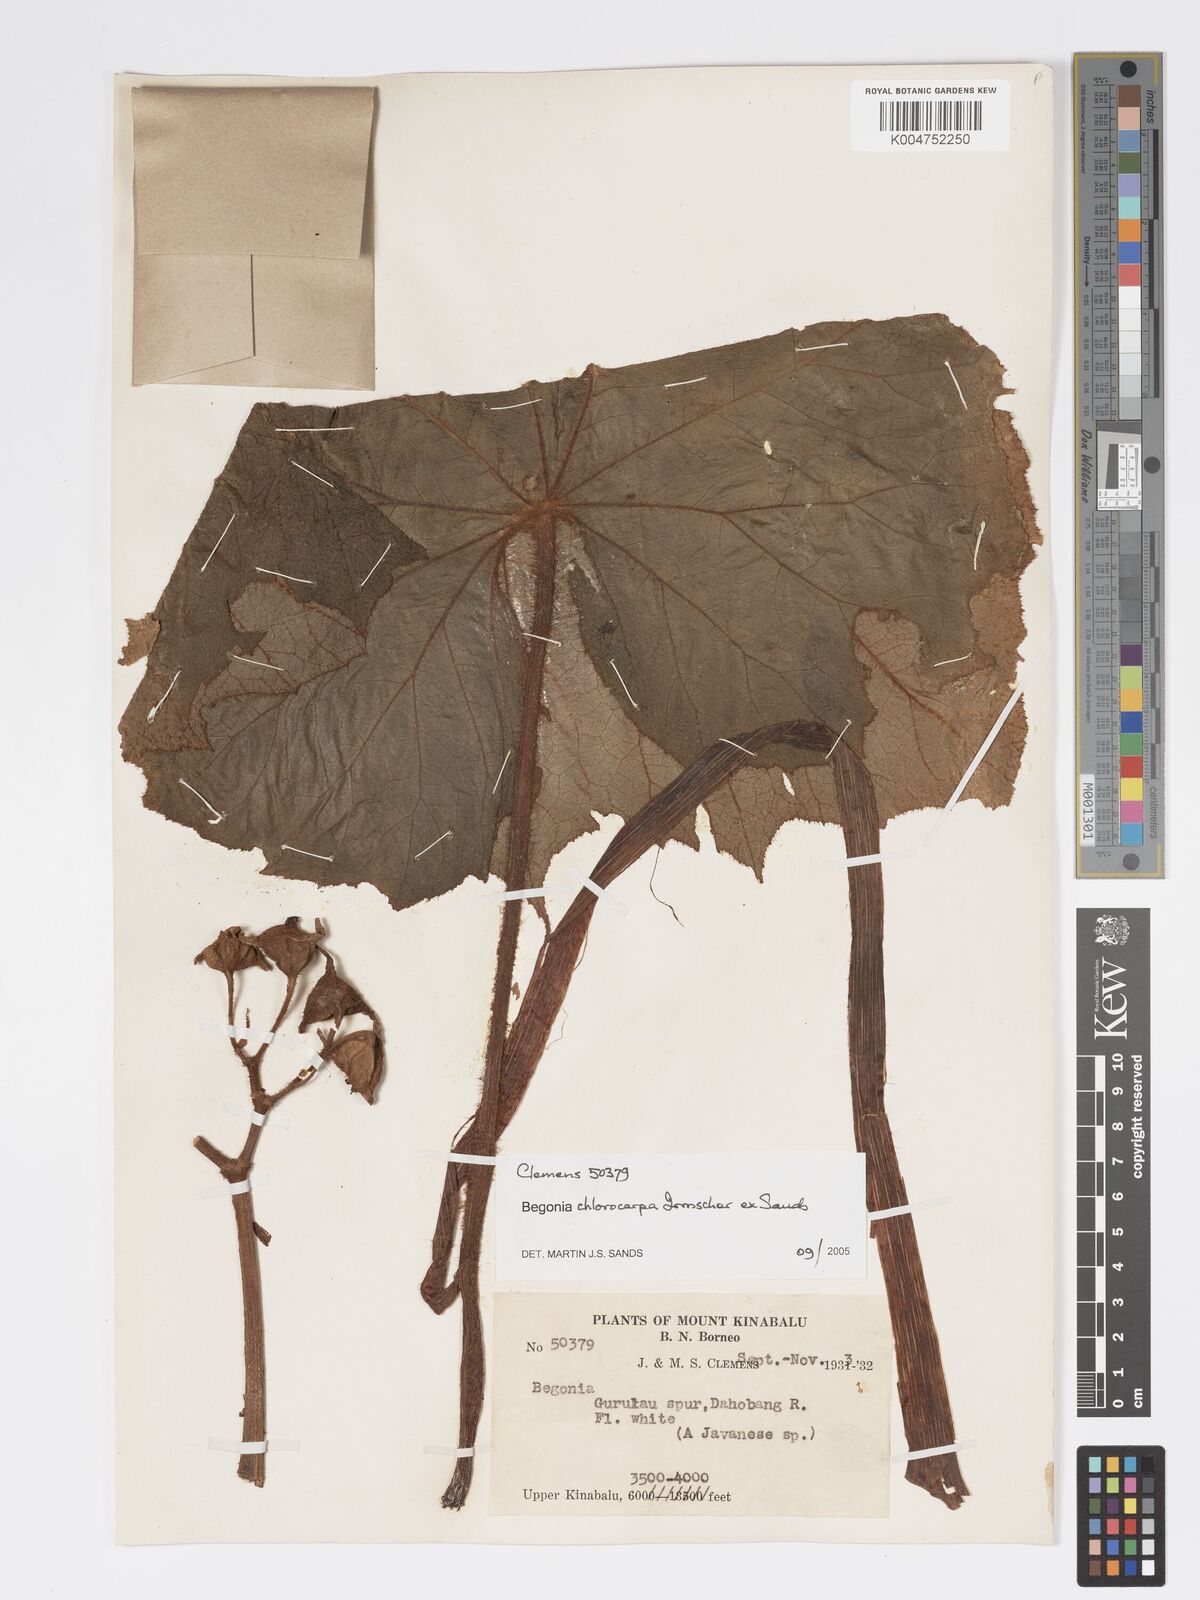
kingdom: Plantae
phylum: Tracheophyta
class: Magnoliopsida
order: Cucurbitales
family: Begoniaceae
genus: Begonia
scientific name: Begonia chlorocarpa
